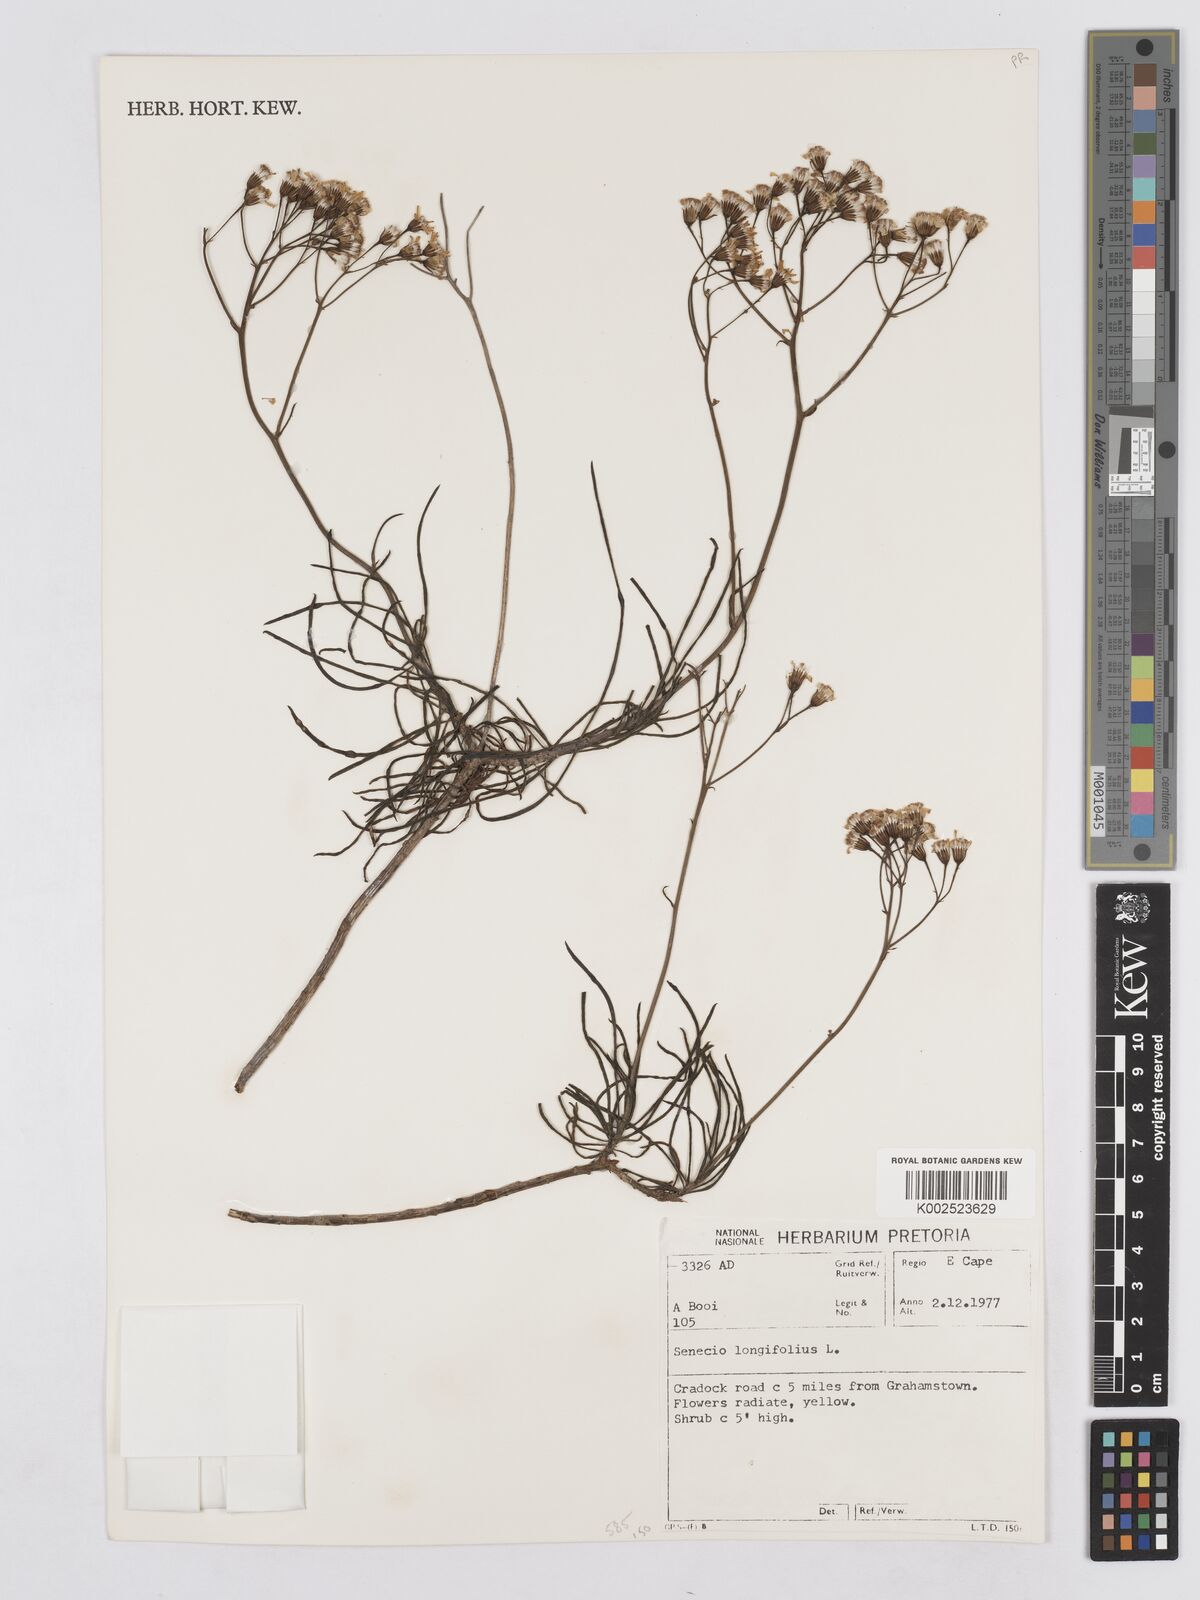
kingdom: Plantae
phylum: Tracheophyta
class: Magnoliopsida
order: Asterales
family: Asteraceae
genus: Senecio
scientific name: Senecio linifolius
